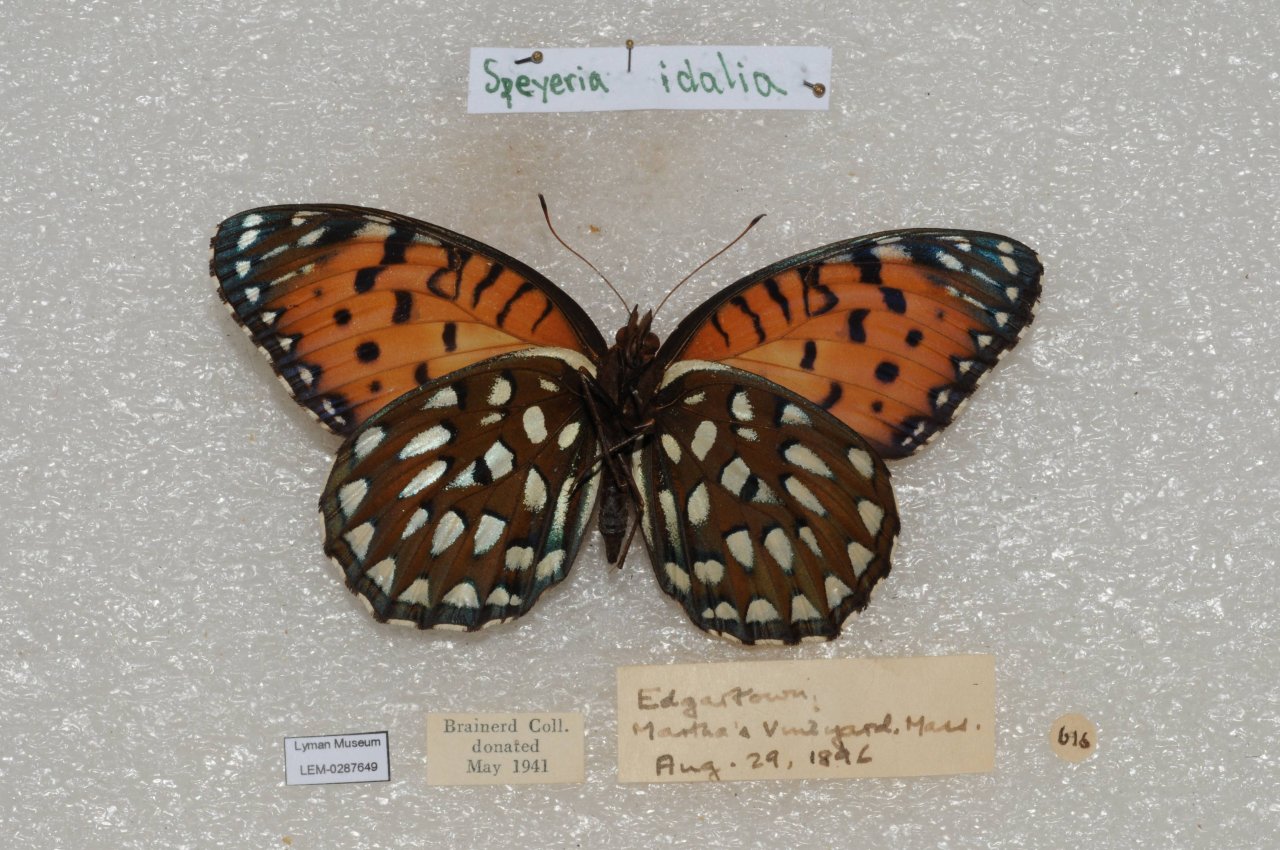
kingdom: Animalia
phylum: Arthropoda
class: Insecta
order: Lepidoptera
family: Nymphalidae
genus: Speyeria
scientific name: Speyeria idalia
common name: Regal Fritillary
